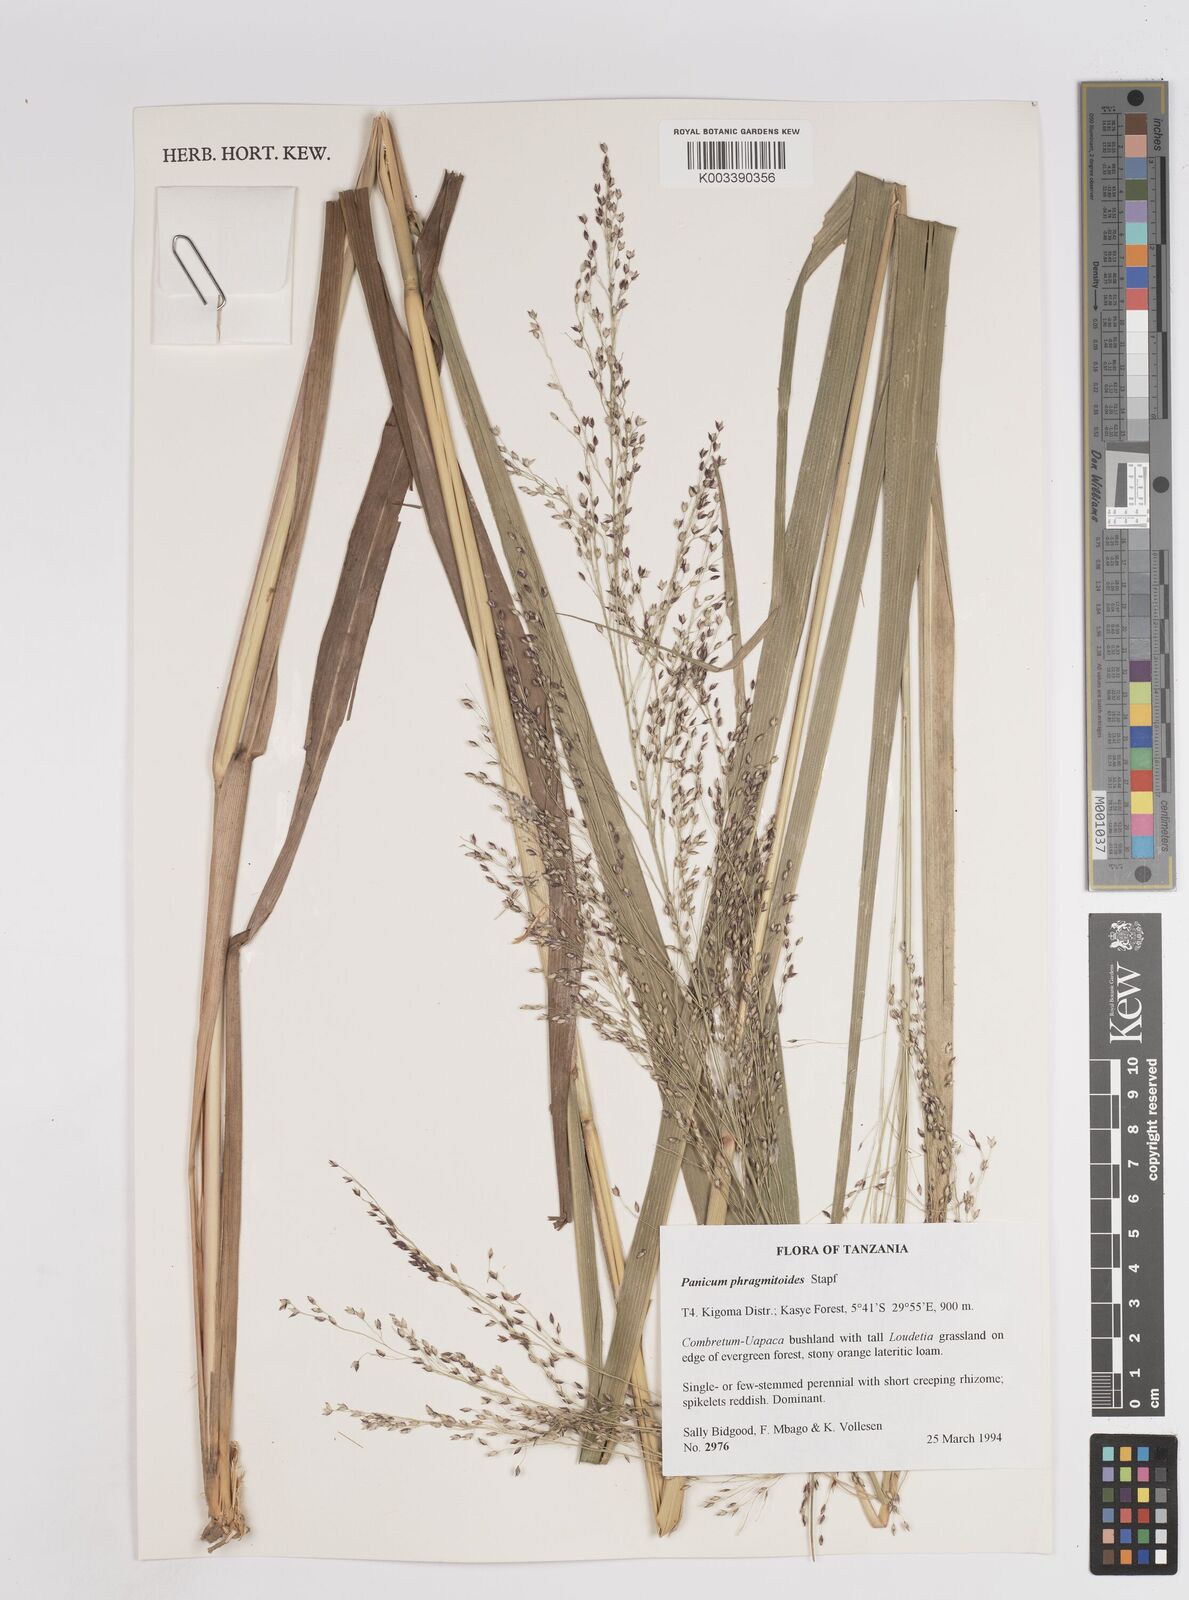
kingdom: Plantae
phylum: Tracheophyta
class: Liliopsida
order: Poales
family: Poaceae
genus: Panicum
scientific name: Panicum phragmitoides
